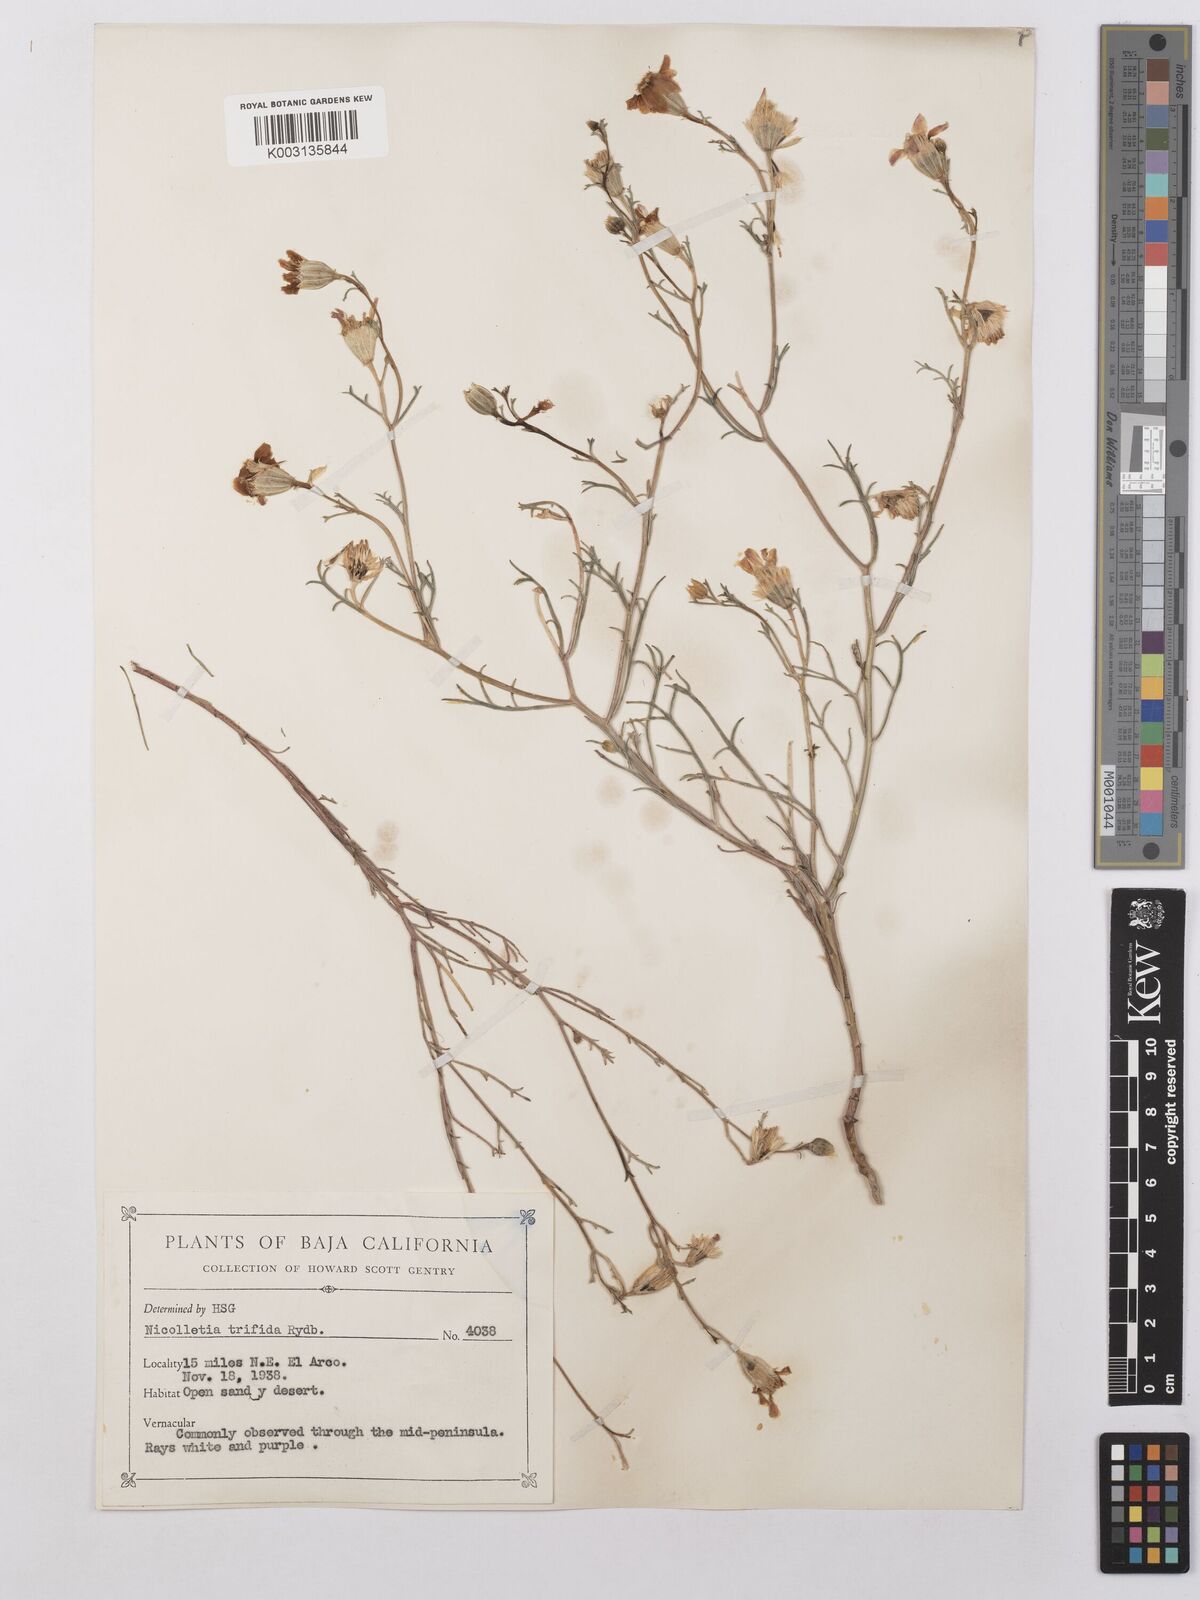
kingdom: Plantae
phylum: Tracheophyta
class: Magnoliopsida
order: Asterales
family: Asteraceae
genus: Nicolletia
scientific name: Nicolletia trifida
